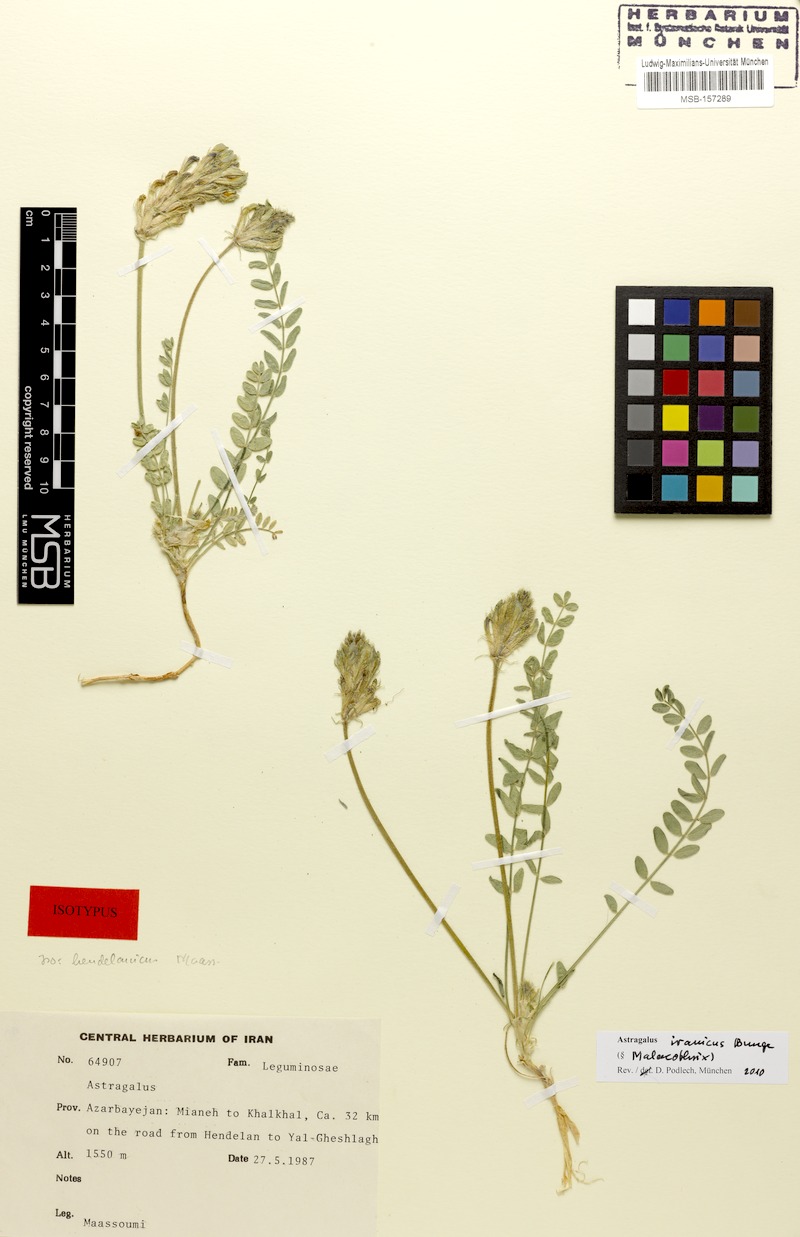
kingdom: Plantae
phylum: Tracheophyta
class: Magnoliopsida
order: Fabales
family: Fabaceae
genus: Astragalus
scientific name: Astragalus iranicus
